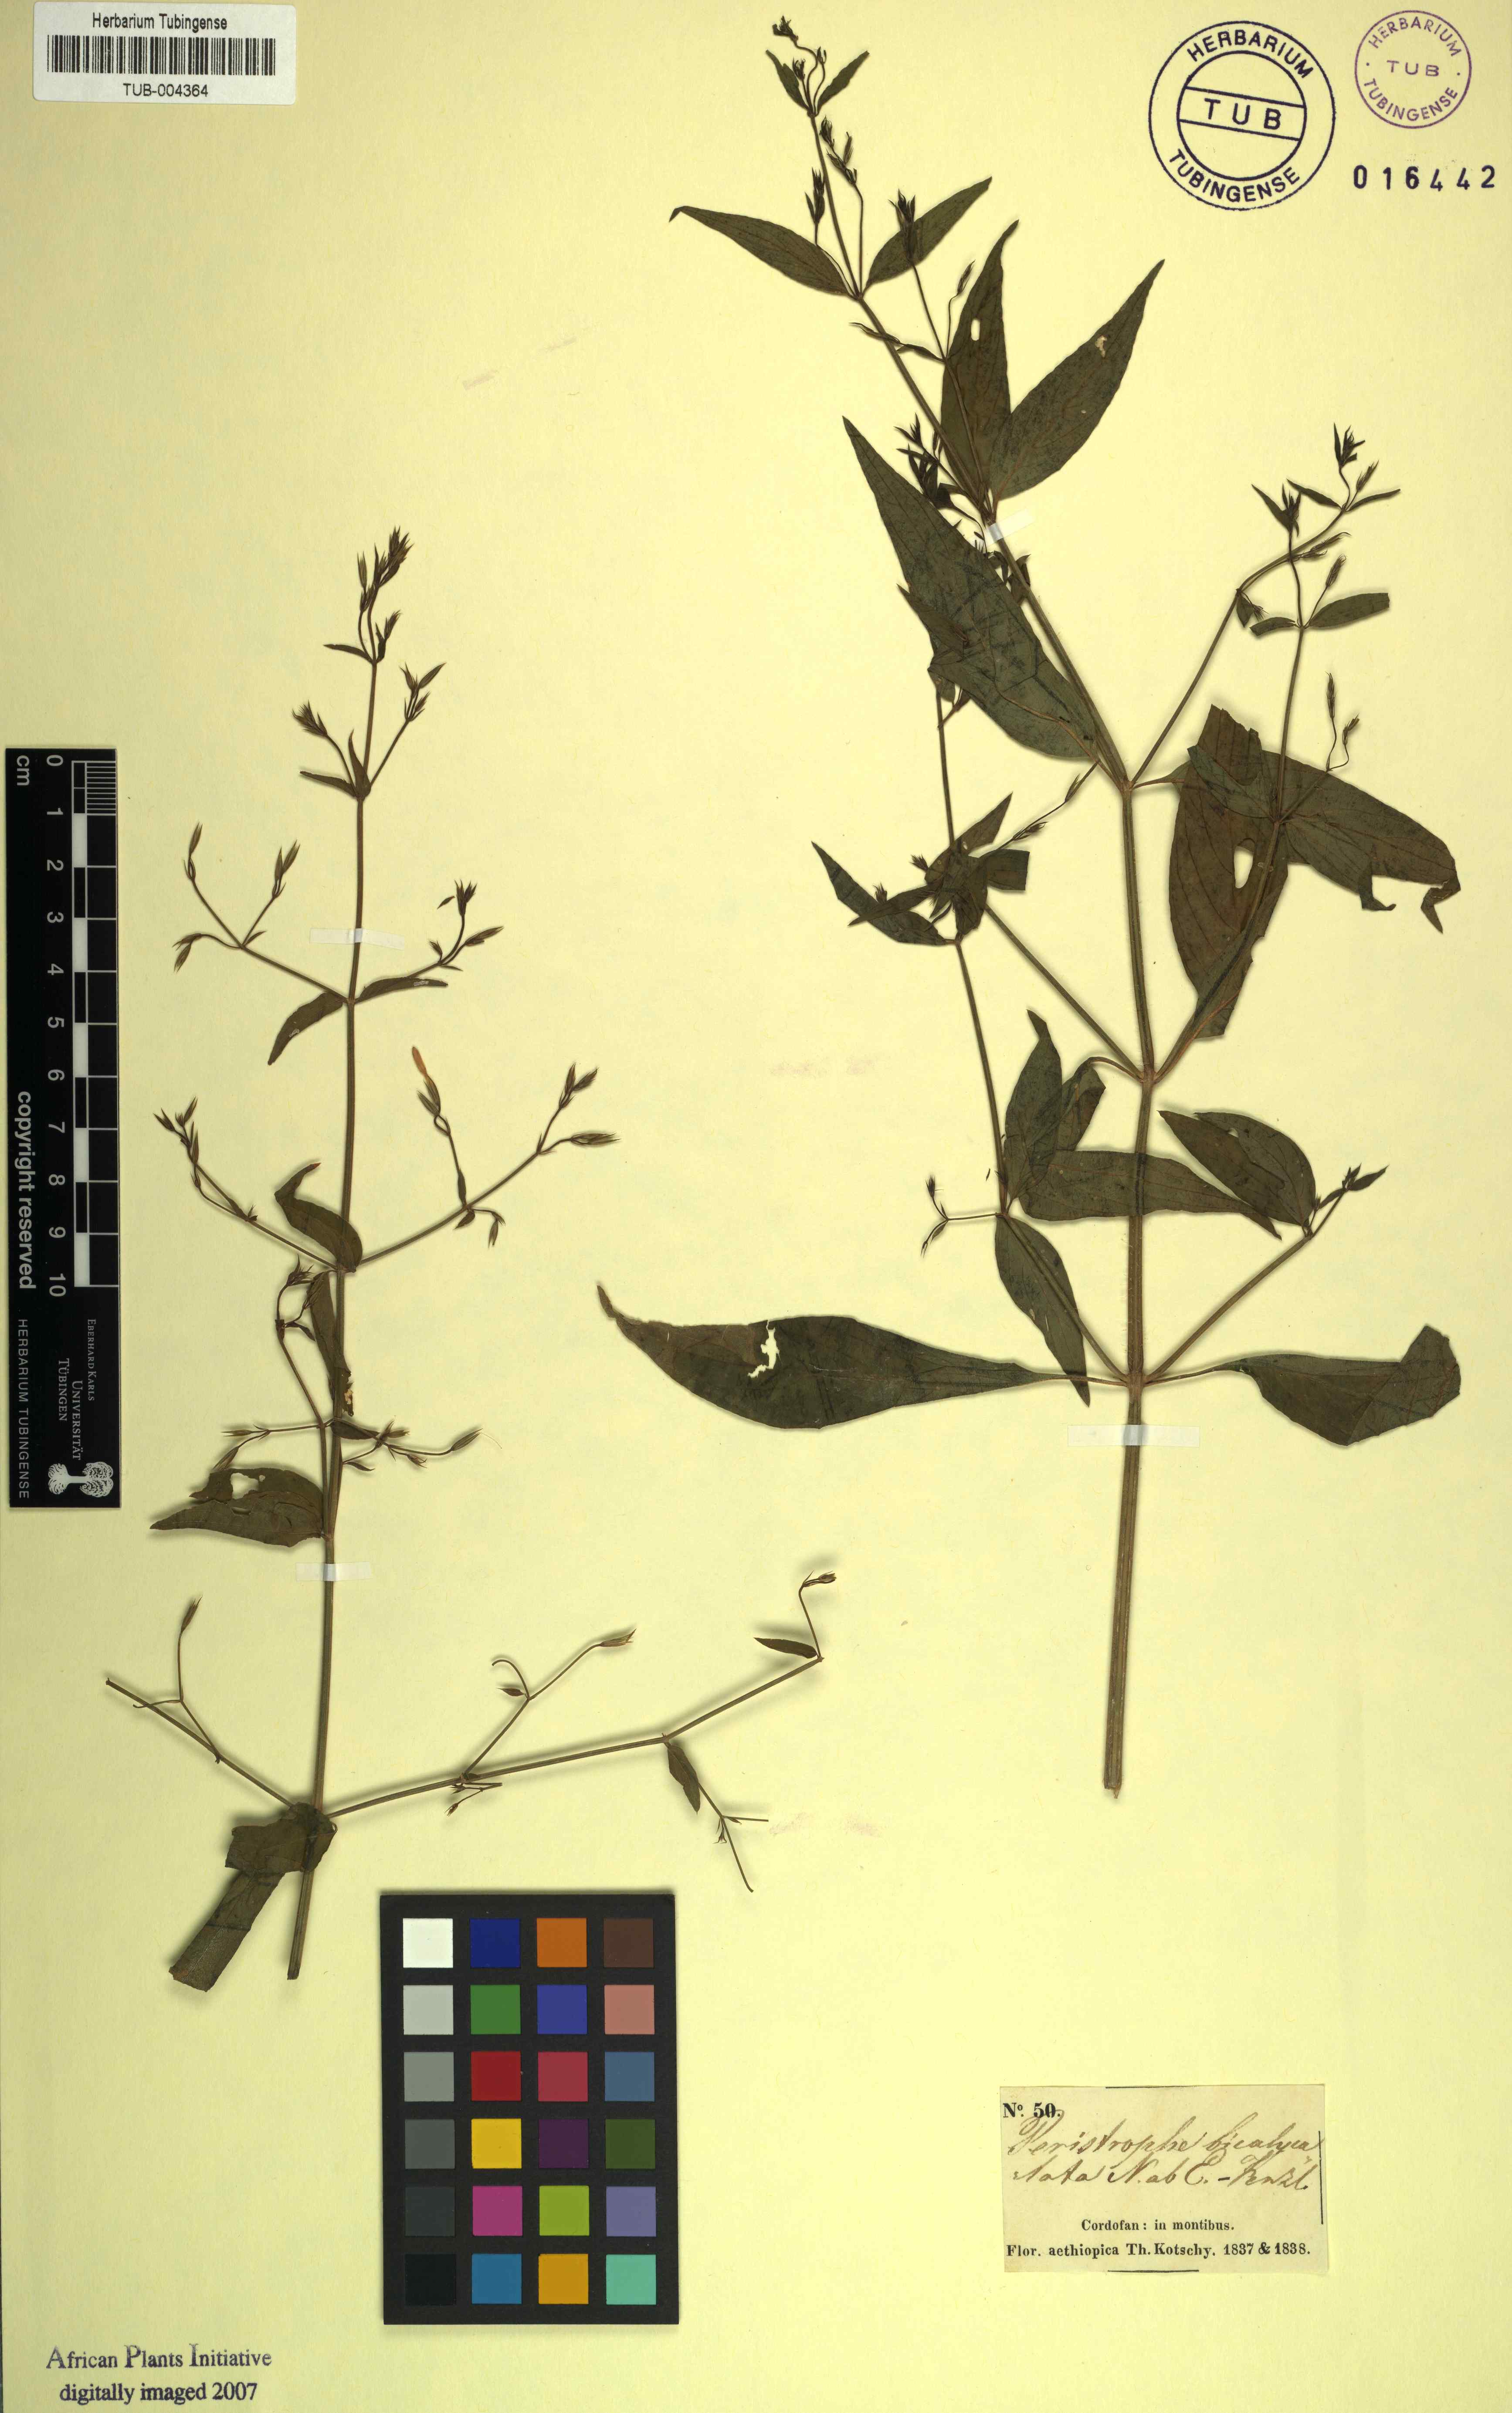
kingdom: Plantae
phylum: Tracheophyta
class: Magnoliopsida
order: Lamiales
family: Acanthaceae
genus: Dicliptera
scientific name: Dicliptera paniculata
